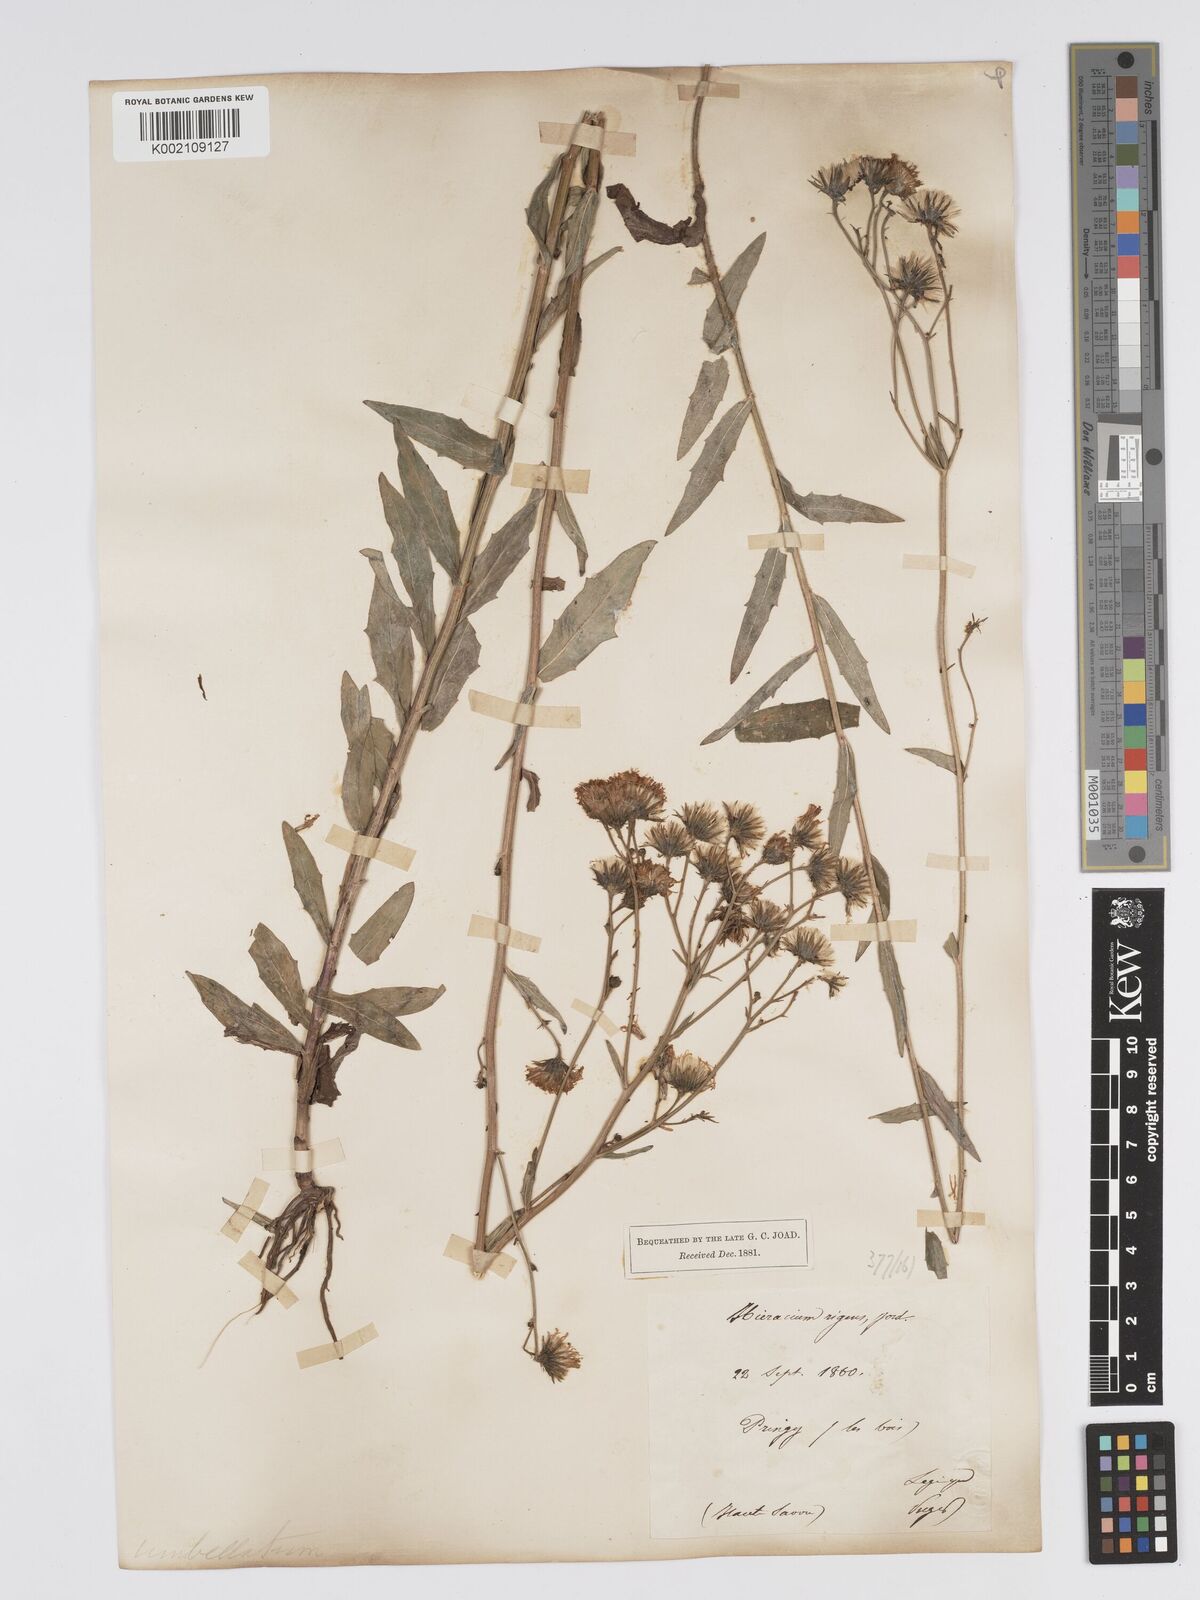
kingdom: Plantae
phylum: Tracheophyta
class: Magnoliopsida
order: Asterales
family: Asteraceae
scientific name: Asteraceae
